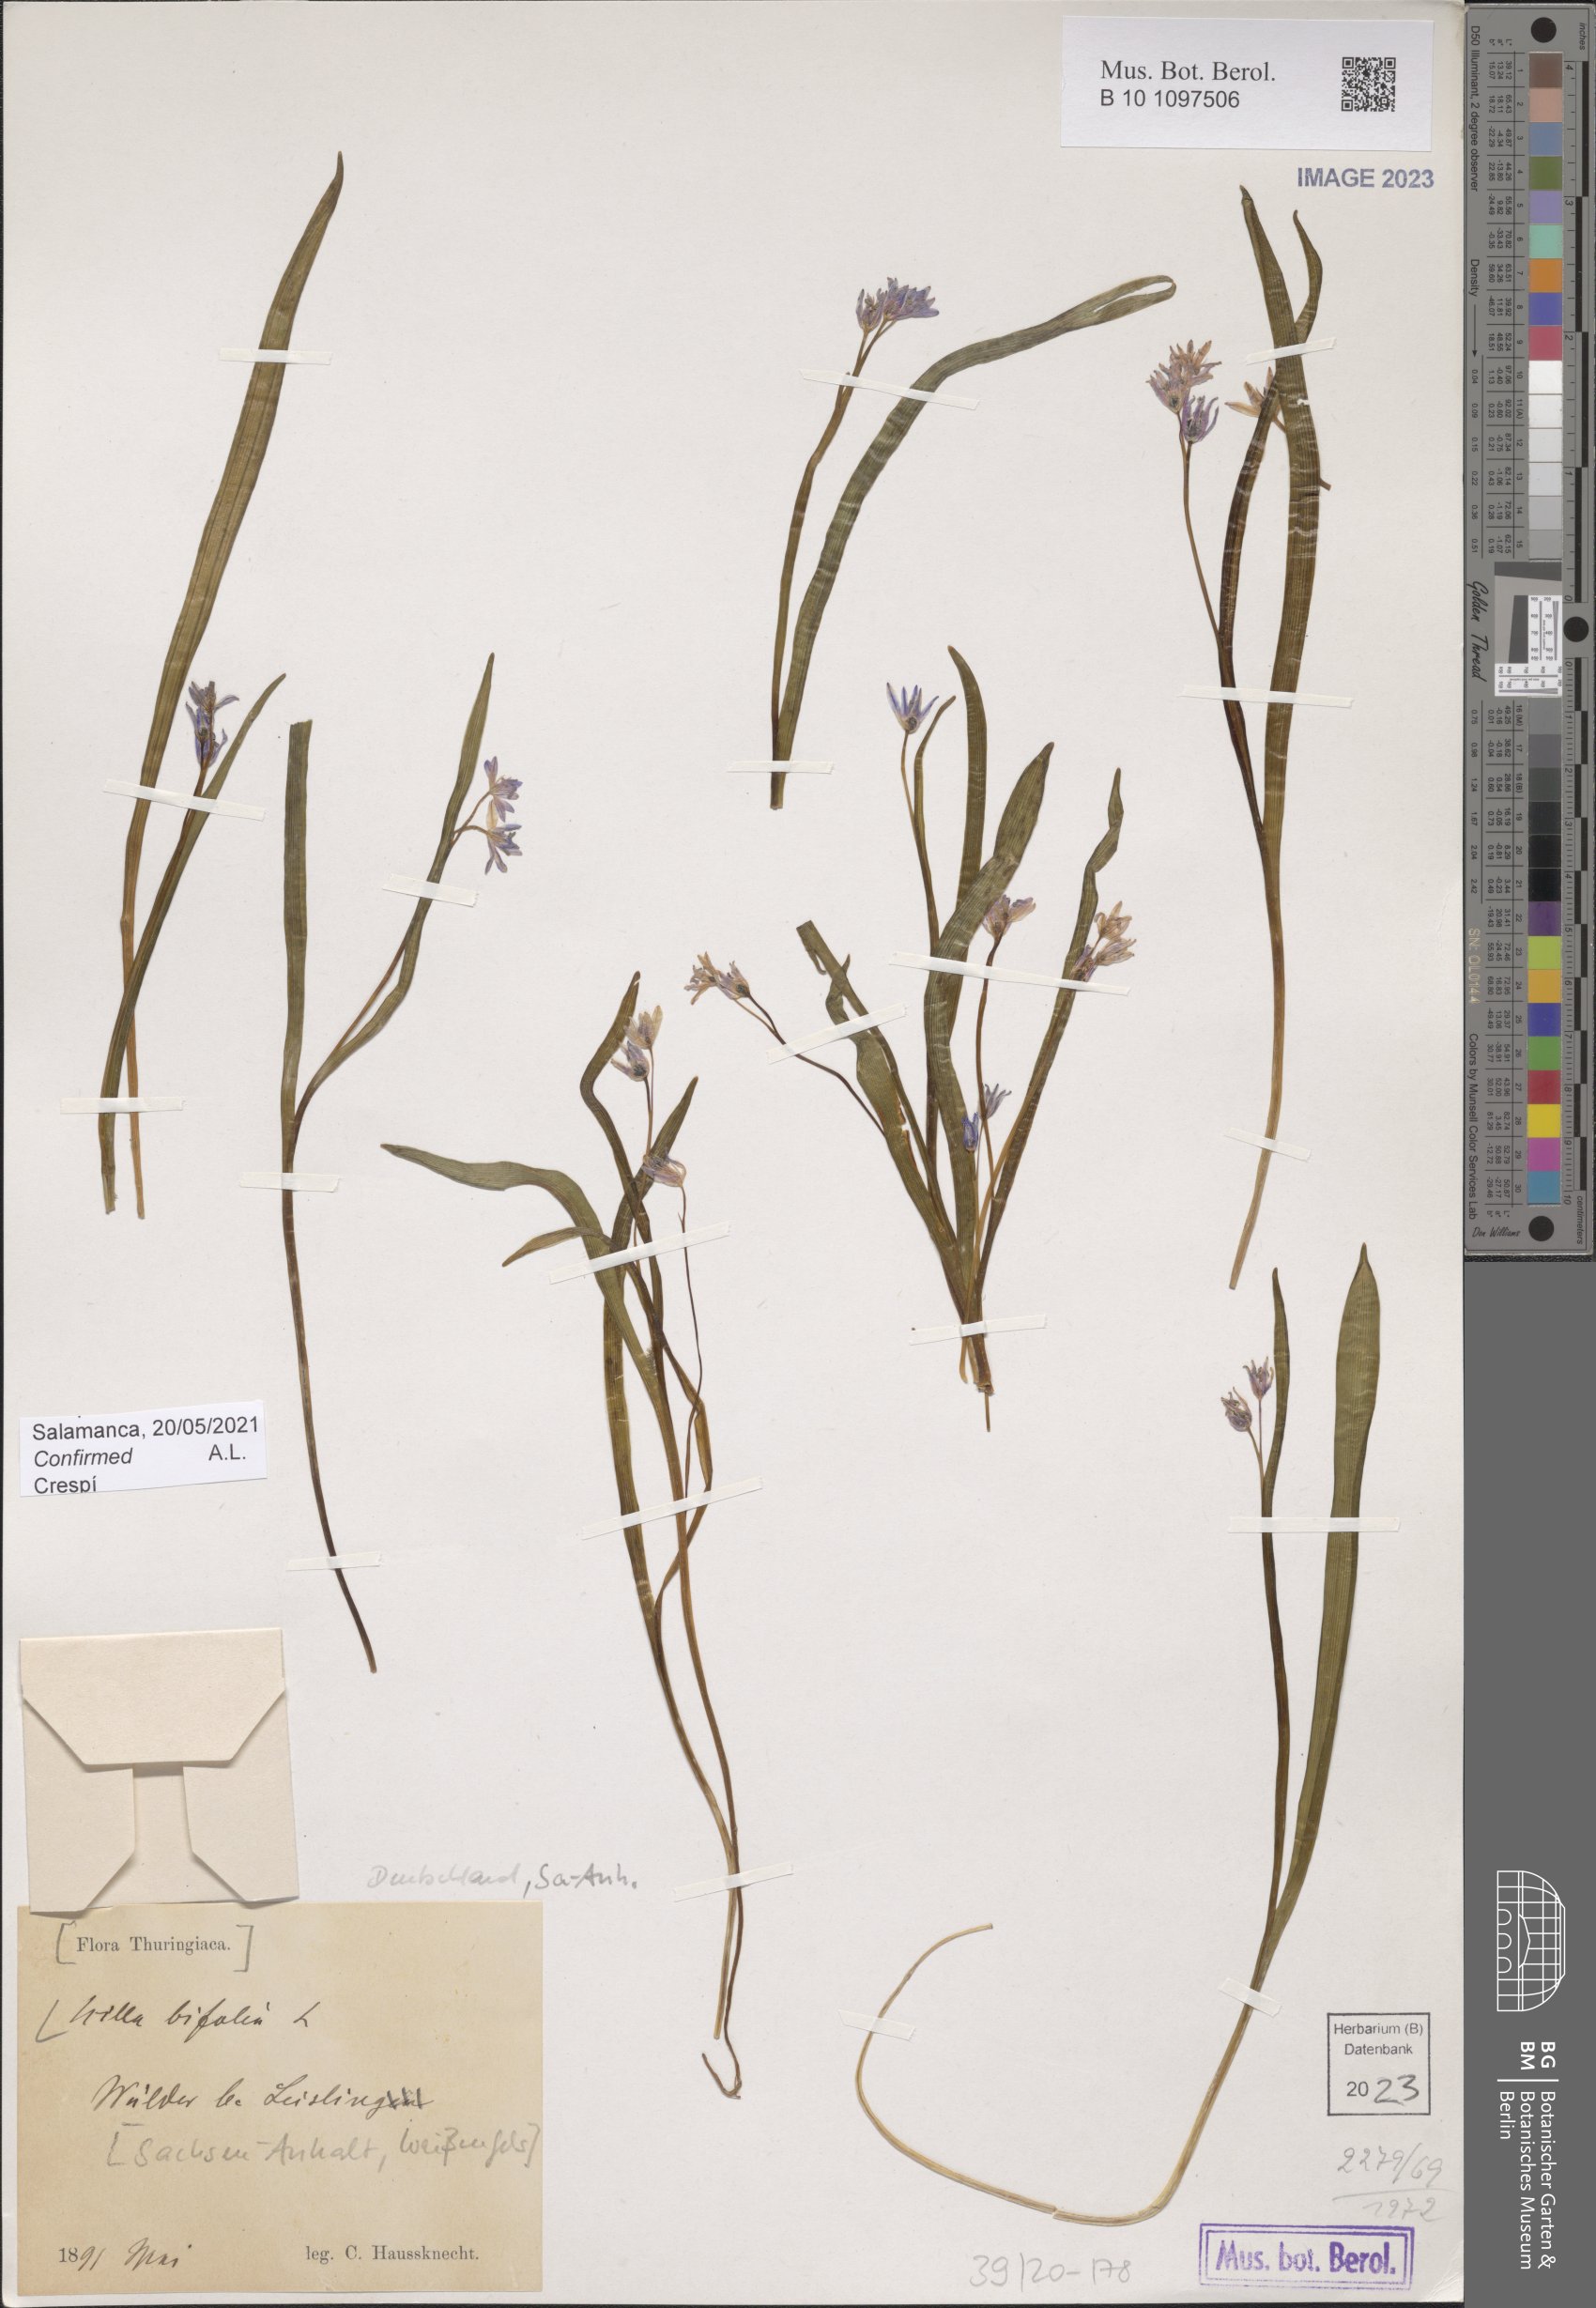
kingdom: Plantae
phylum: Tracheophyta
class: Liliopsida
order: Asparagales
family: Asparagaceae
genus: Scilla
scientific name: Scilla bifolia
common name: Alpine squill
